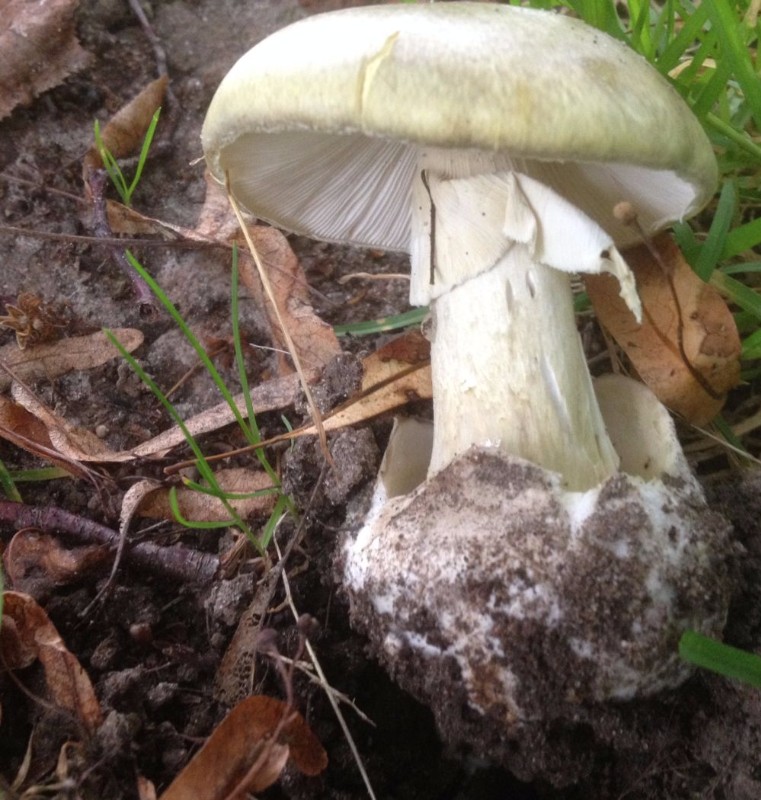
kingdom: Fungi
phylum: Basidiomycota
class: Agaricomycetes
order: Agaricales
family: Amanitaceae
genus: Amanita
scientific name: Amanita phalloides
